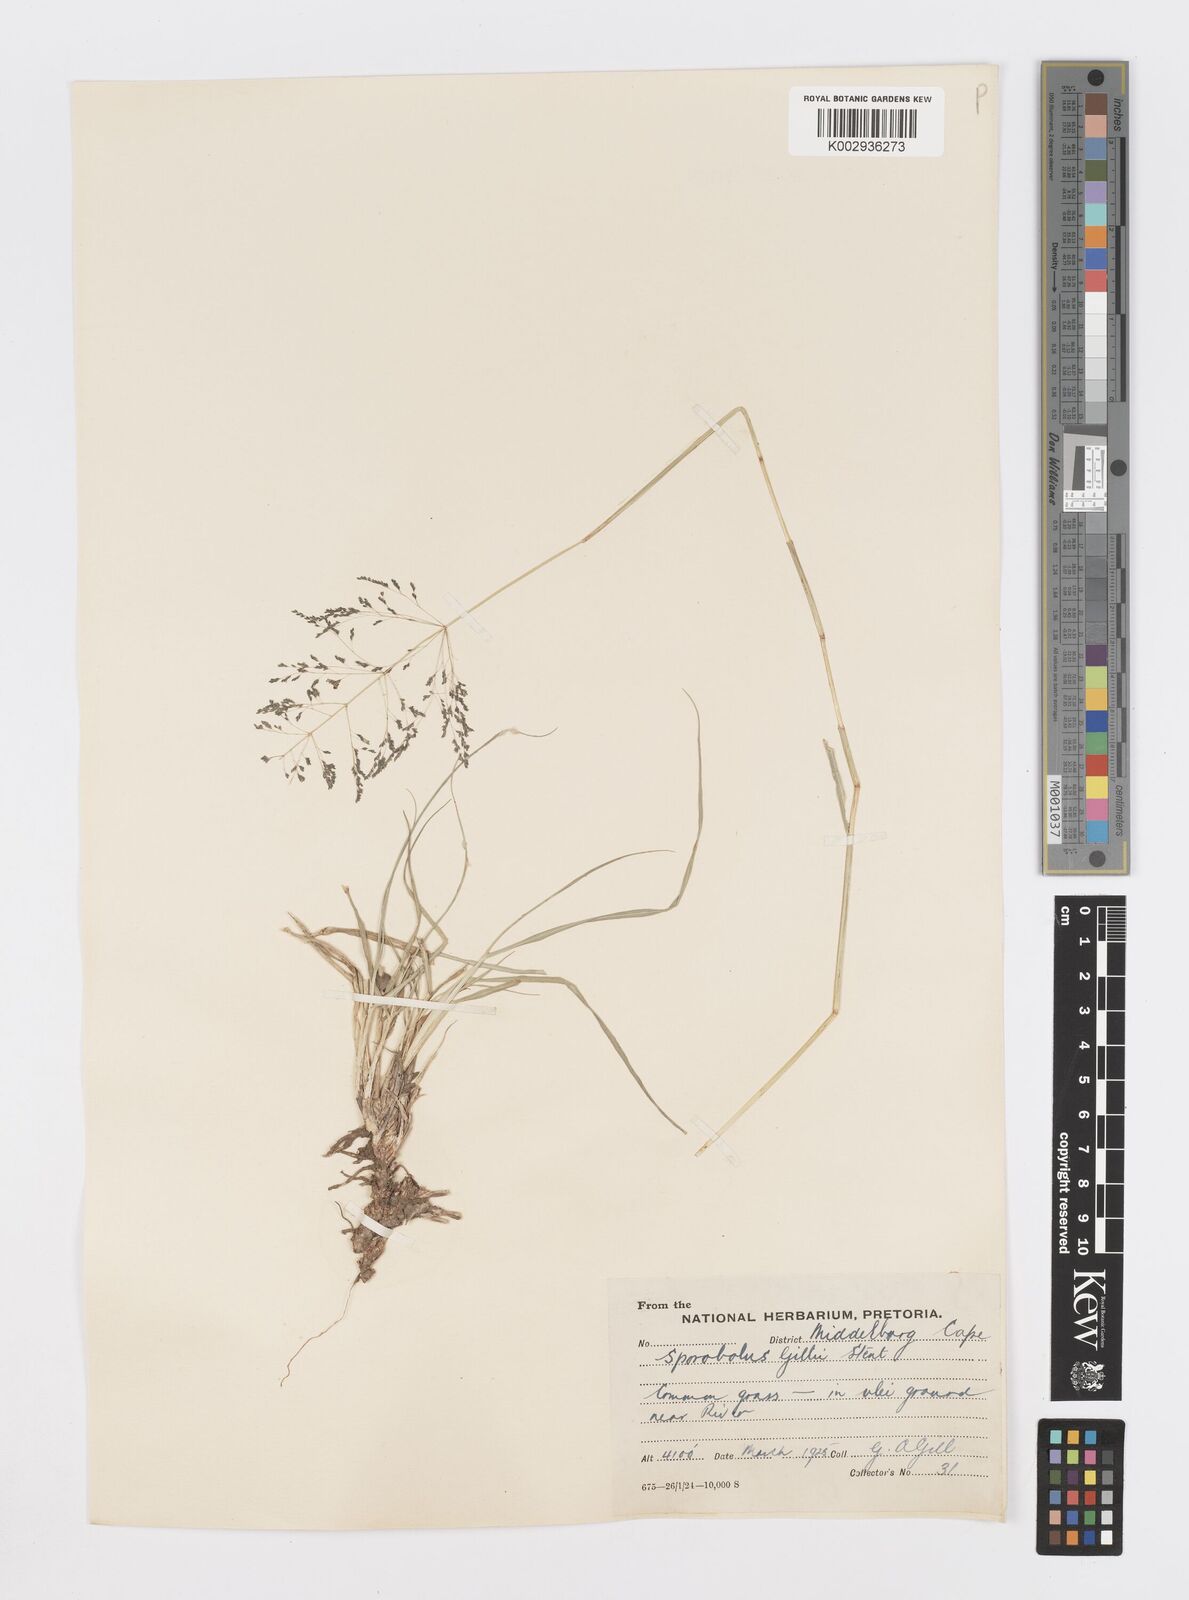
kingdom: Plantae
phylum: Tracheophyta
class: Liliopsida
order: Poales
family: Poaceae
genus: Sporobolus
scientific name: Sporobolus ioclados
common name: Pan dropseed
